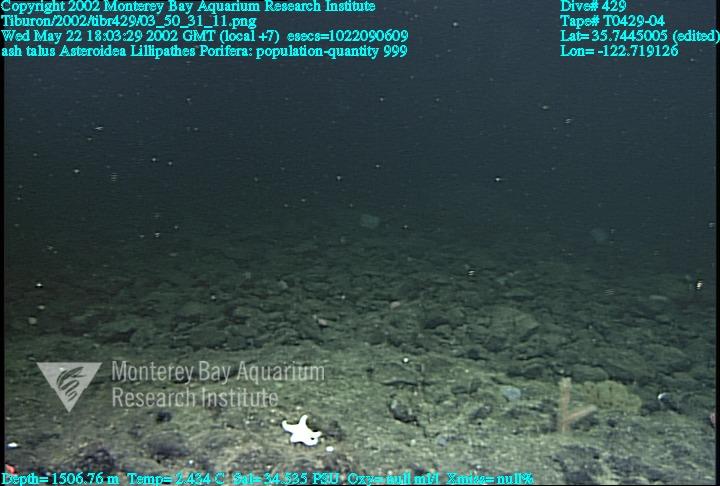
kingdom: Animalia
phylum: Porifera
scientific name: Porifera
